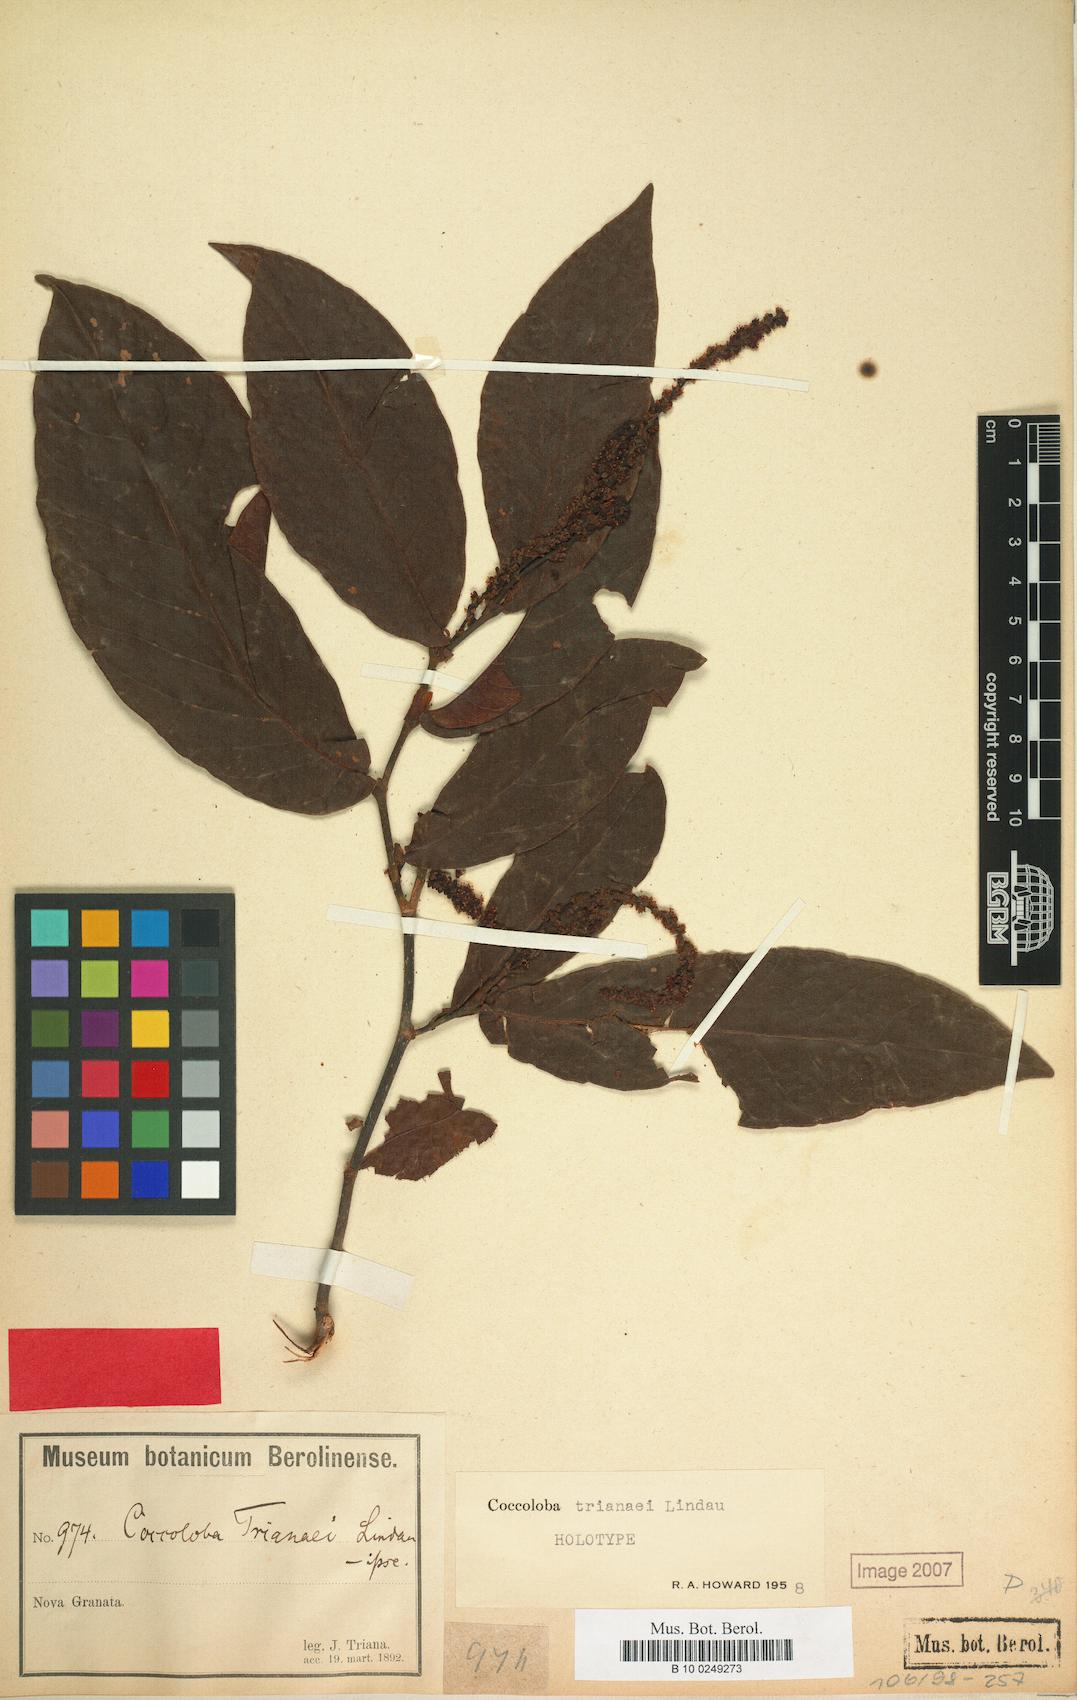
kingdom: Plantae
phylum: Tracheophyta
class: Magnoliopsida
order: Caryophyllales
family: Polygonaceae
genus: Coccoloba
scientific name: Coccoloba venosa
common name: Sugary grape
